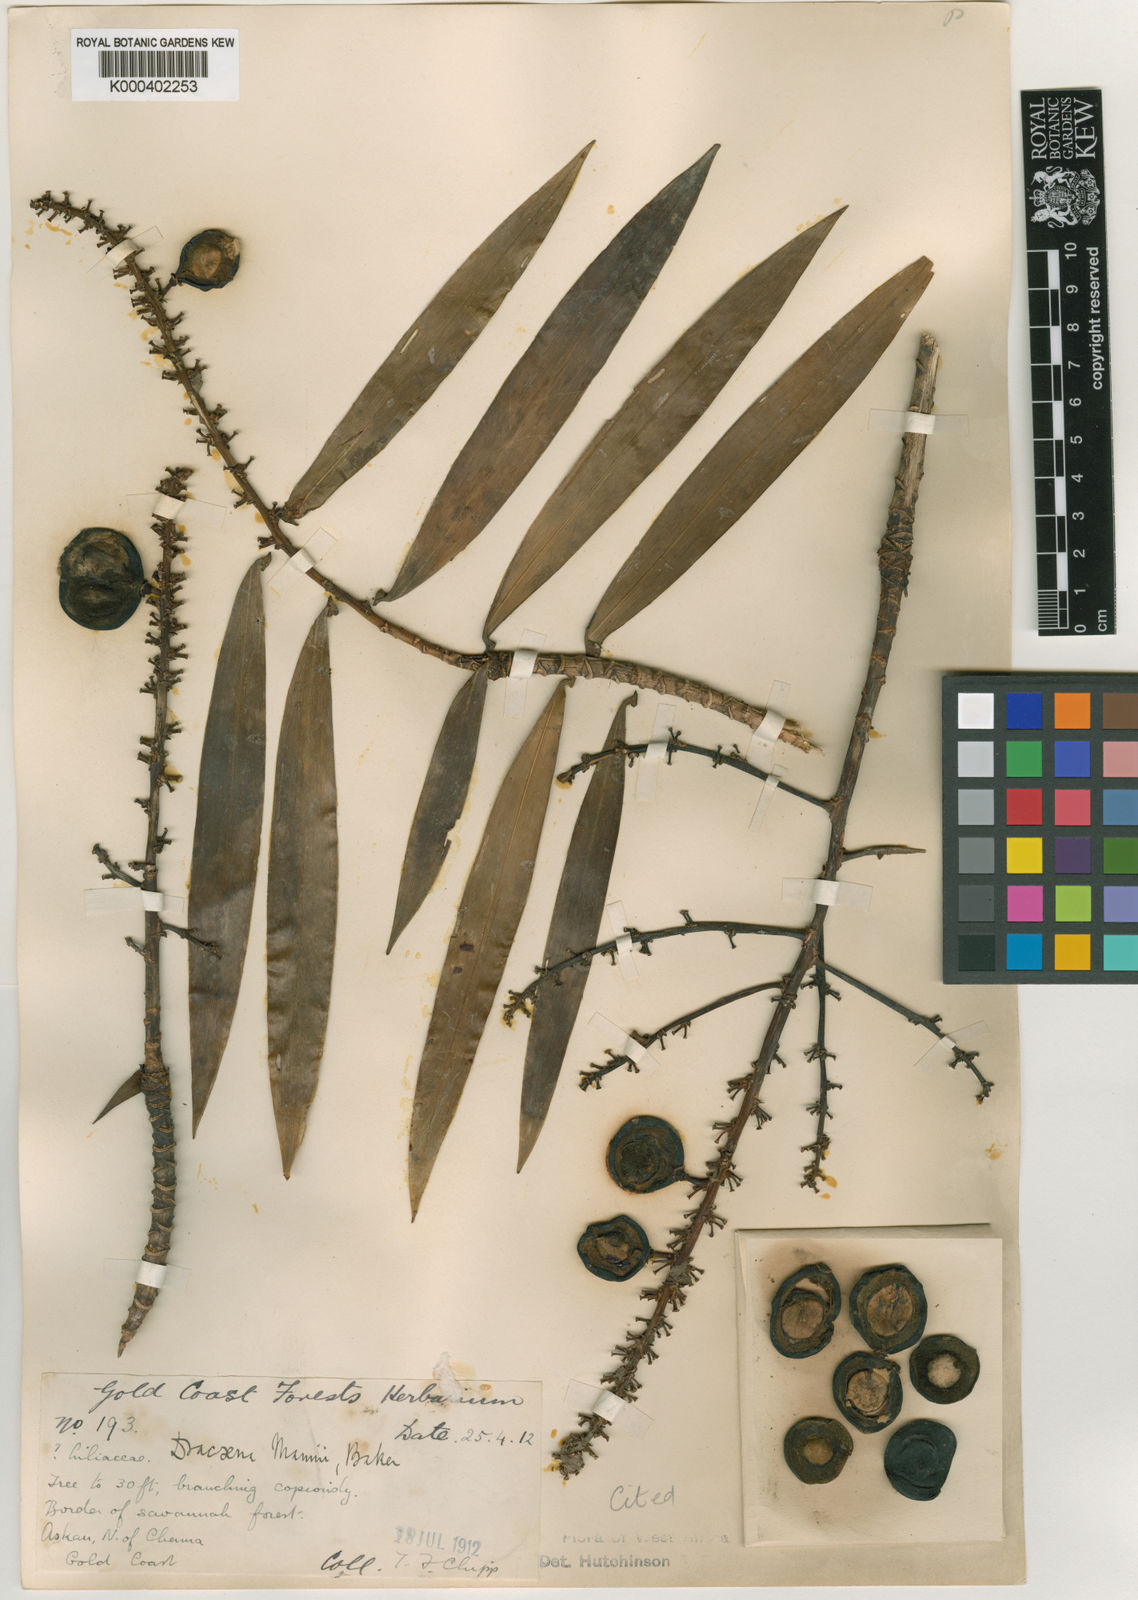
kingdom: Plantae
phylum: Tracheophyta
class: Liliopsida
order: Asparagales
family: Asparagaceae
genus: Dracaena
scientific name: Dracaena perrottetii
